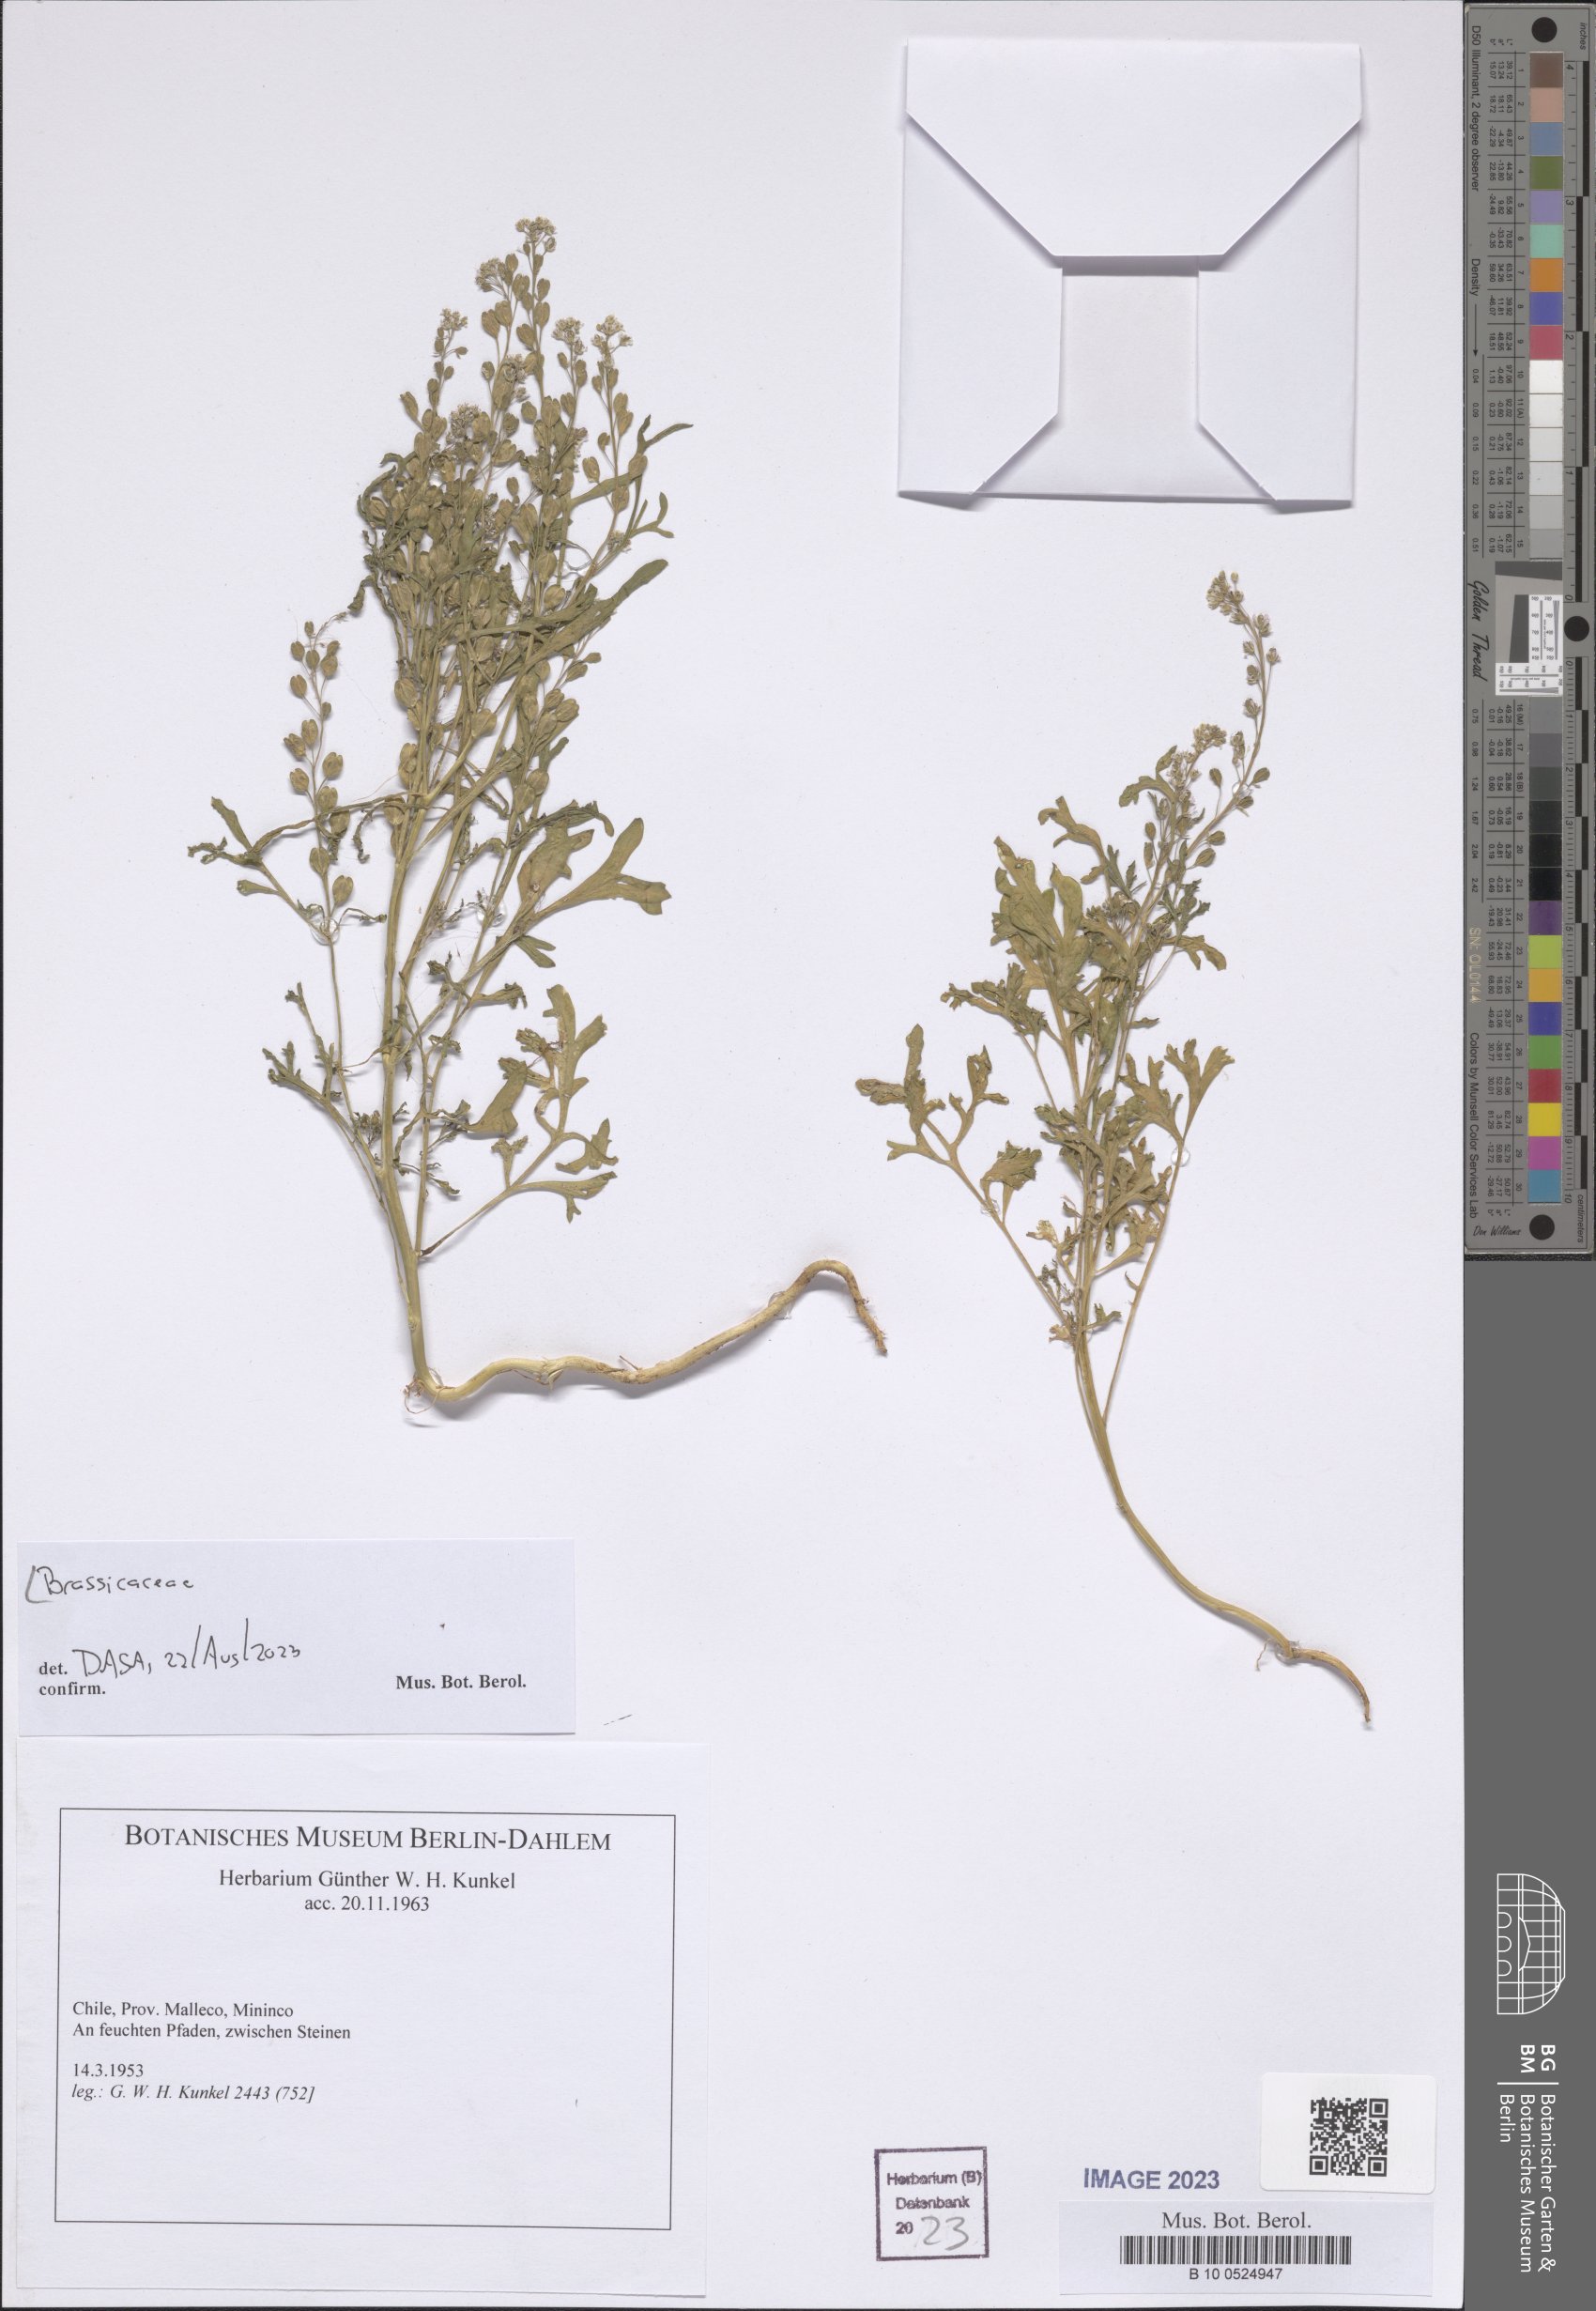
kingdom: Plantae
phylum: Tracheophyta
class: Magnoliopsida
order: Brassicales
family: Brassicaceae
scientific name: Brassicaceae
